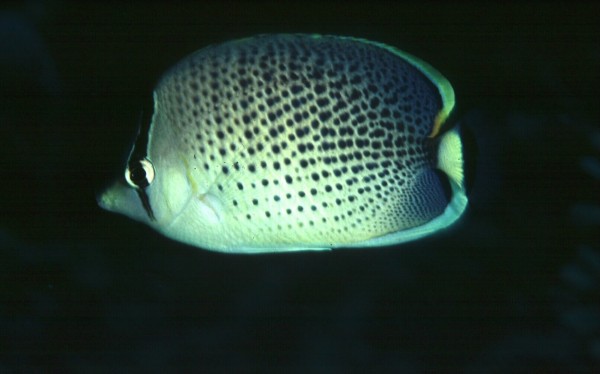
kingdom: Animalia
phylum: Chordata
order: Perciformes
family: Chaetodontidae
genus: Chaetodon
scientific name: Chaetodon guttatissimus
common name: Spotted butterflyfish
